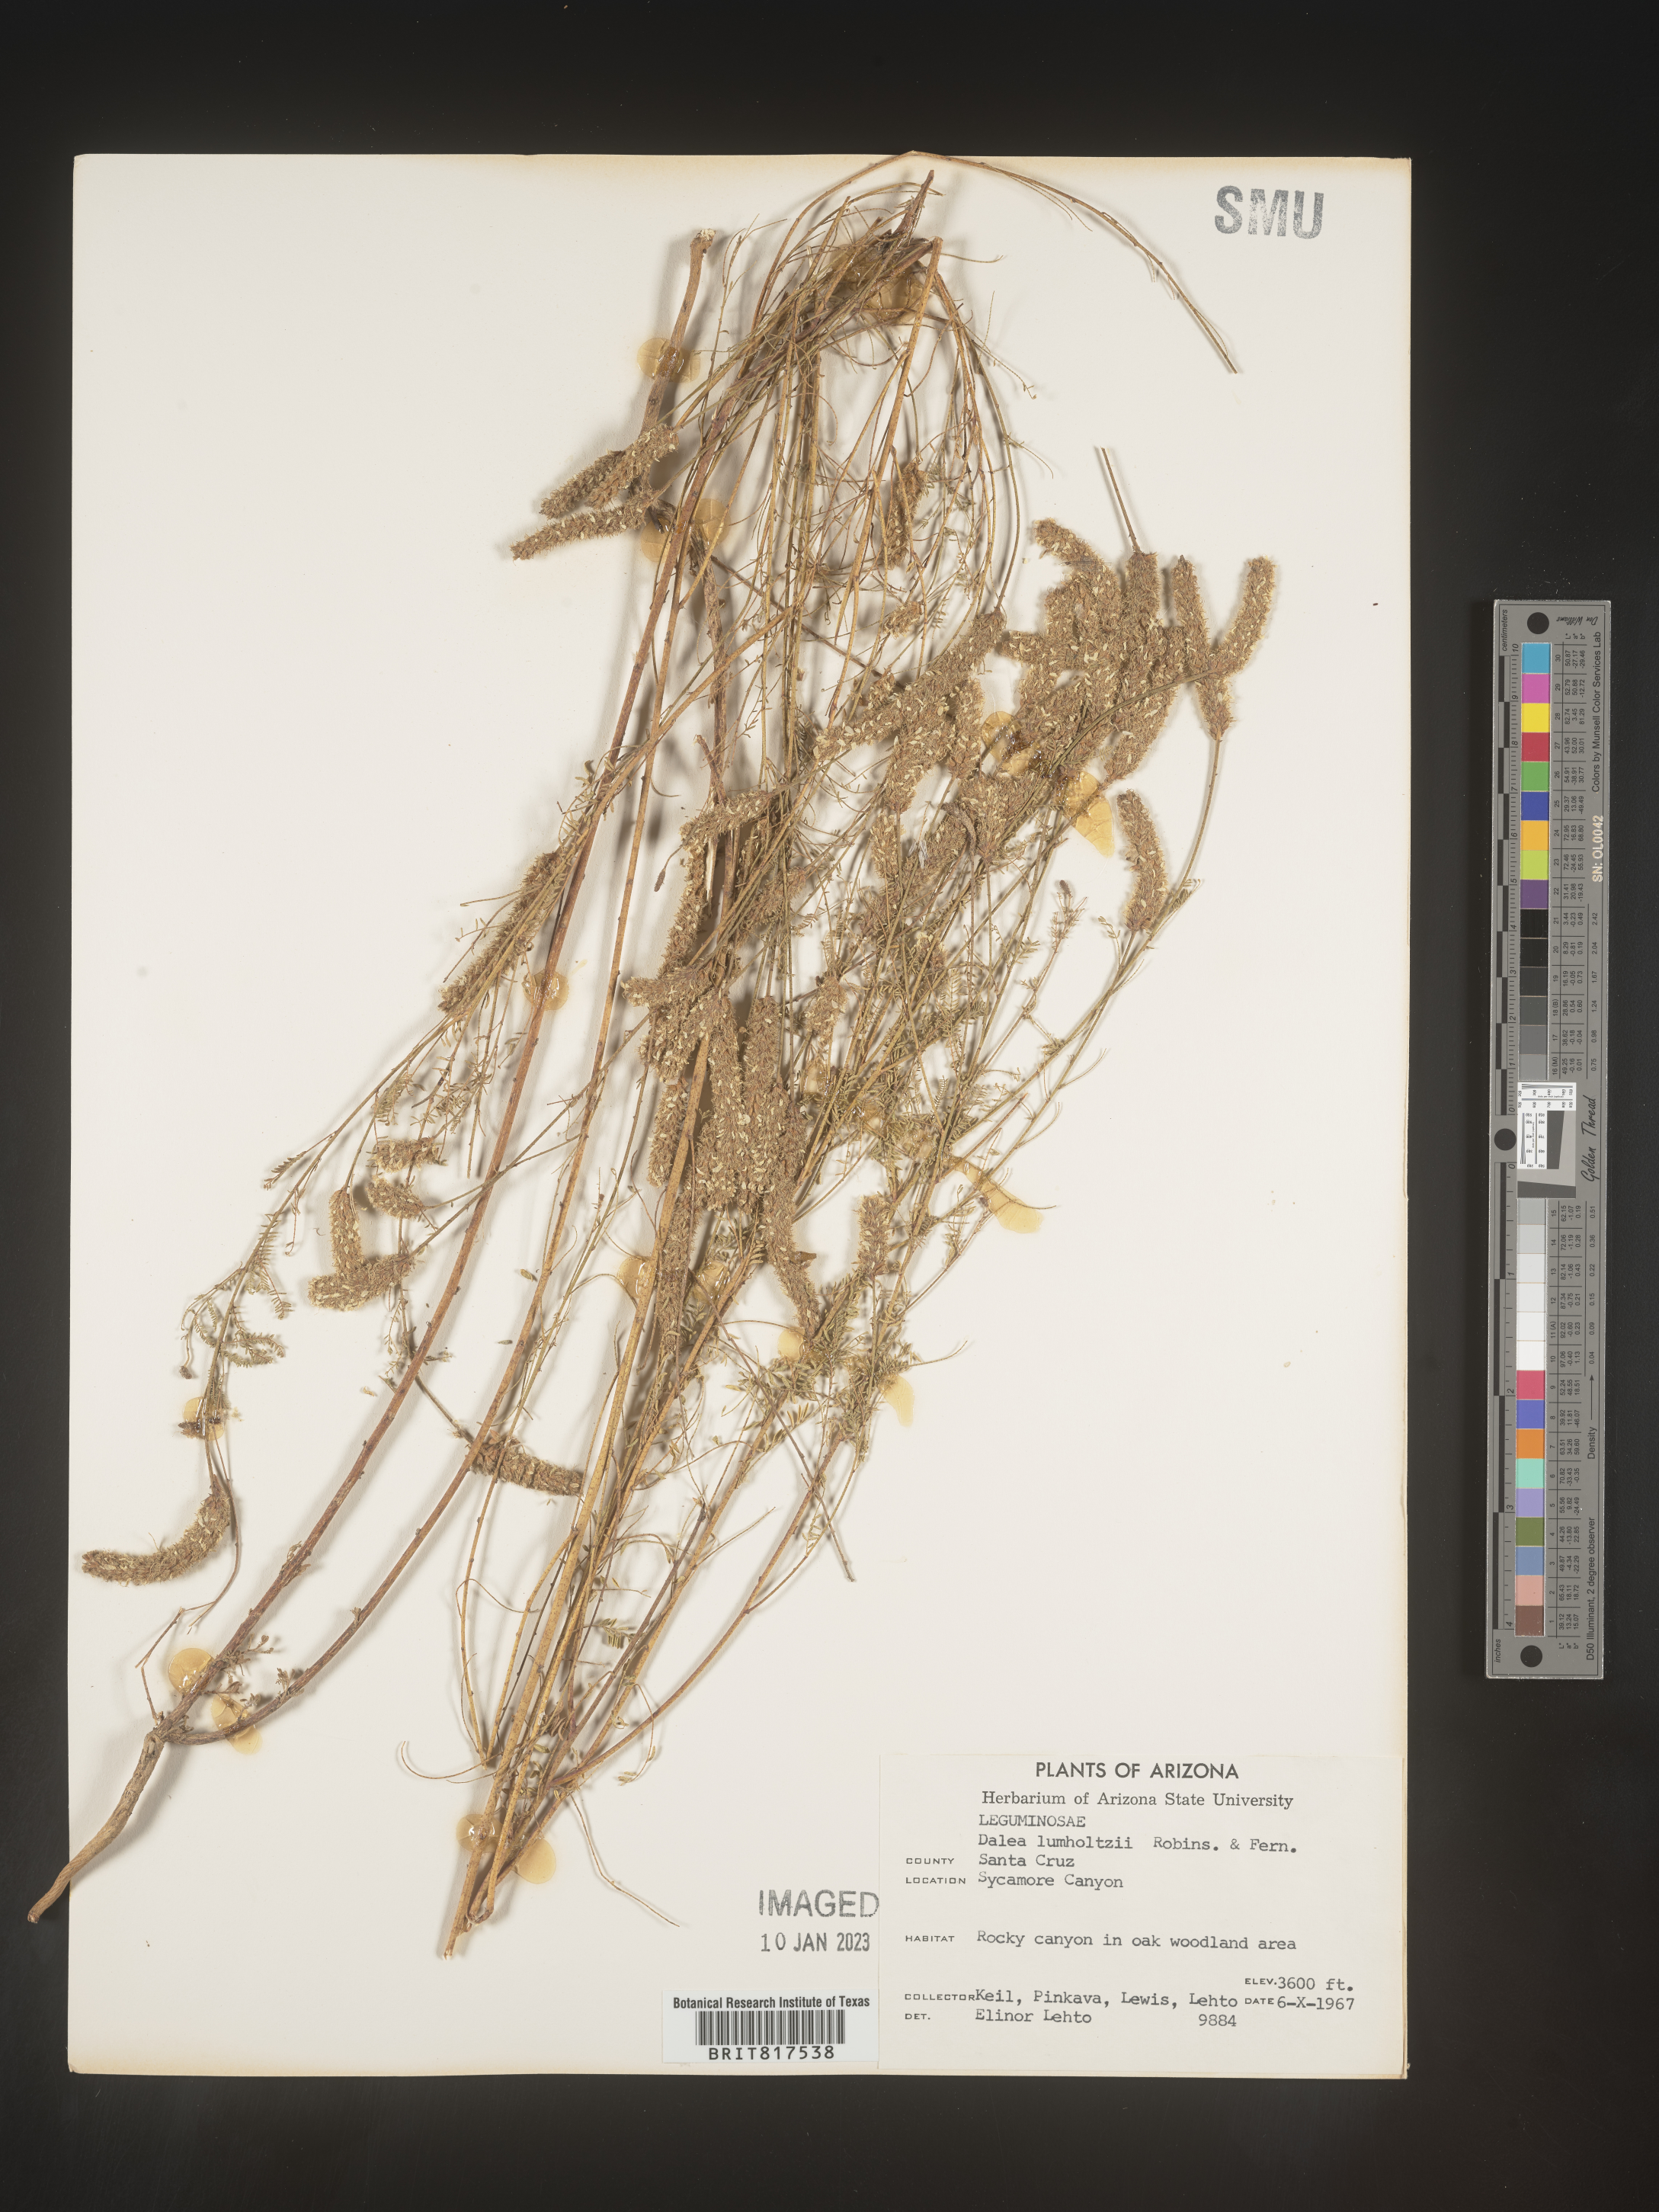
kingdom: Plantae
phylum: Tracheophyta
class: Magnoliopsida
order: Fabales
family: Fabaceae
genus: Dalea
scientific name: Dalea leporina
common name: Foxtail dalea
